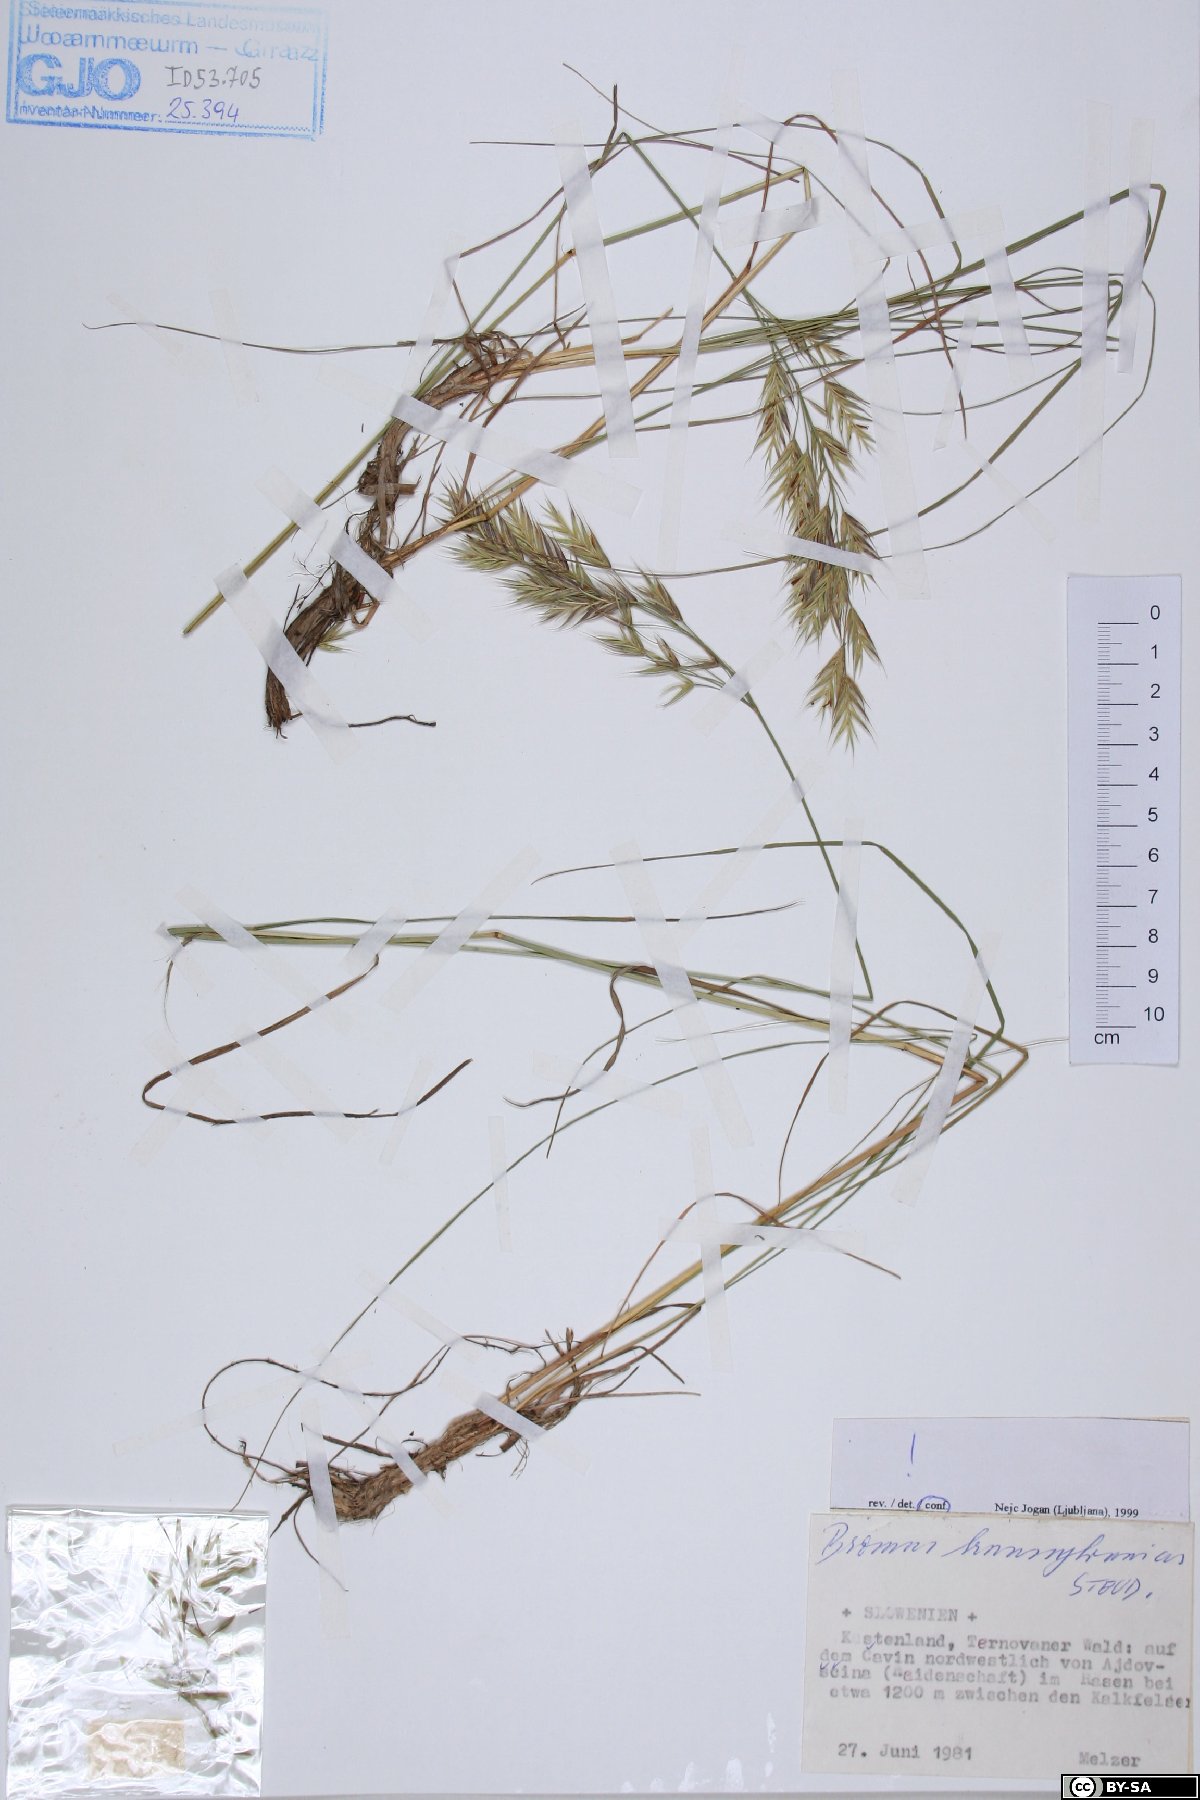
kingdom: Plantae
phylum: Tracheophyta
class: Liliopsida
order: Poales
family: Poaceae
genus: Bromus
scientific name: Bromus erectus
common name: Erect brome
